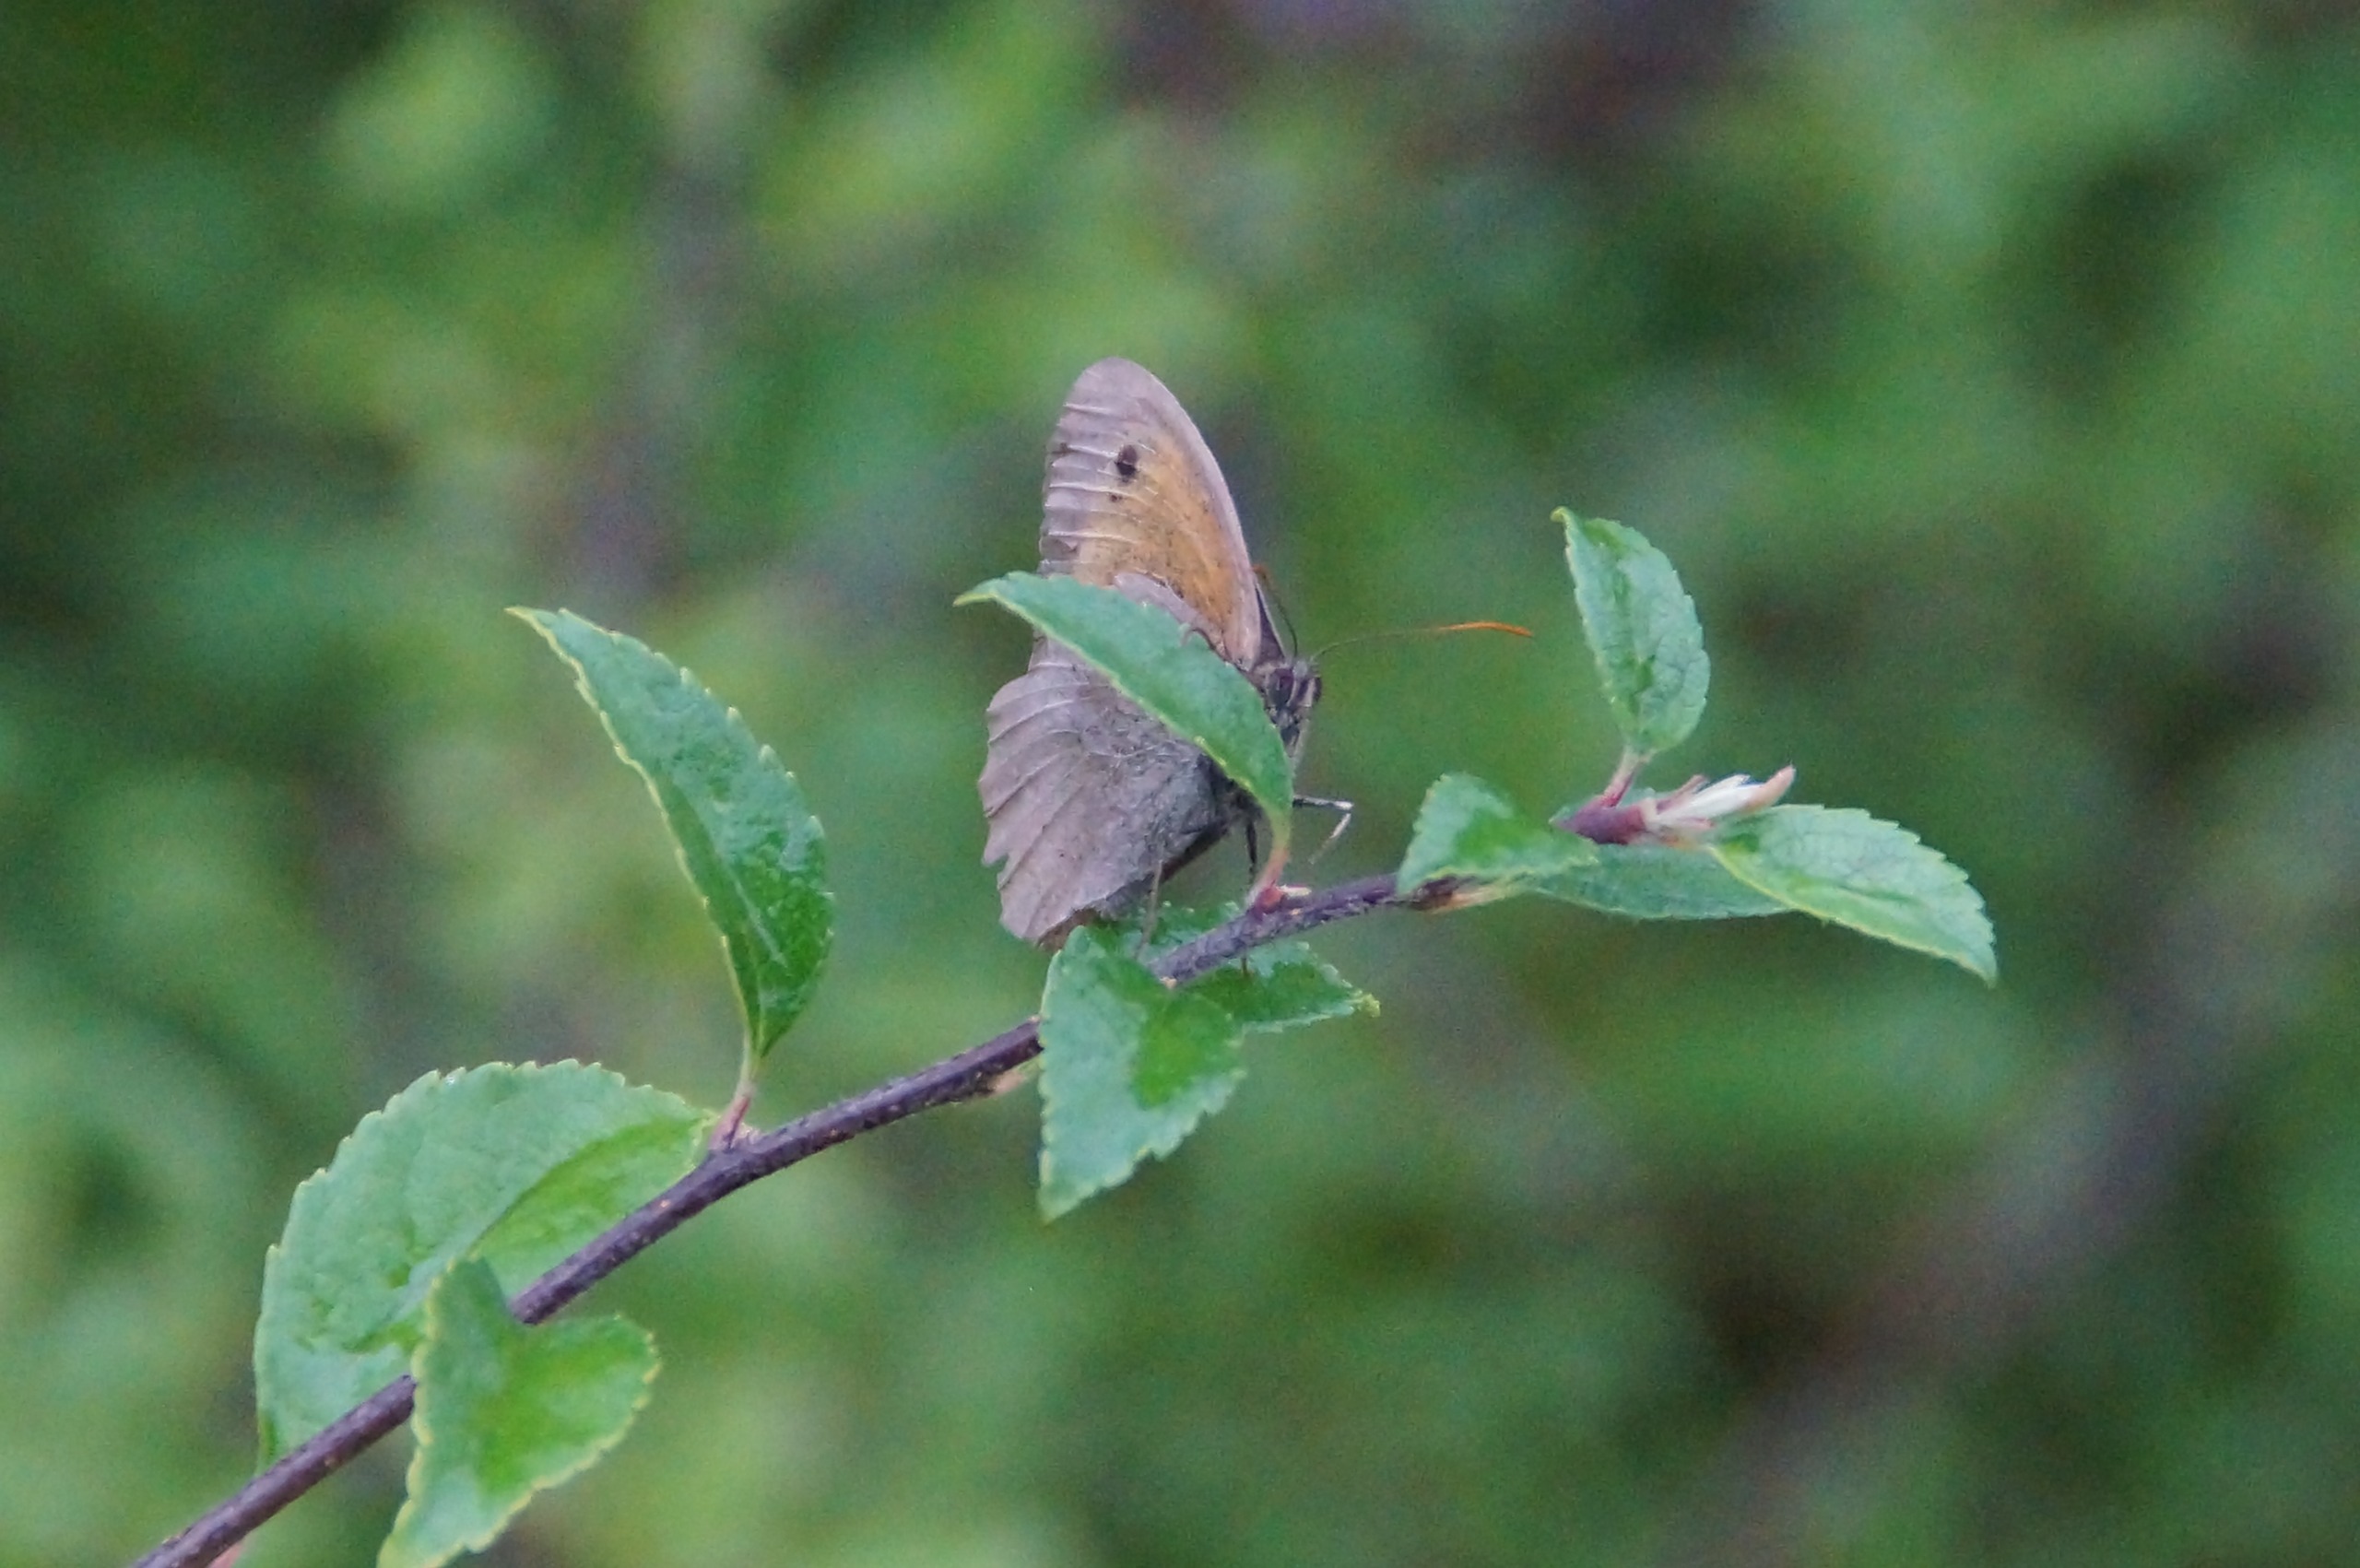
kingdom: Animalia
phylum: Arthropoda
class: Insecta
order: Lepidoptera
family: Nymphalidae
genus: Maniola
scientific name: Maniola jurtina
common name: Græsrandøje
